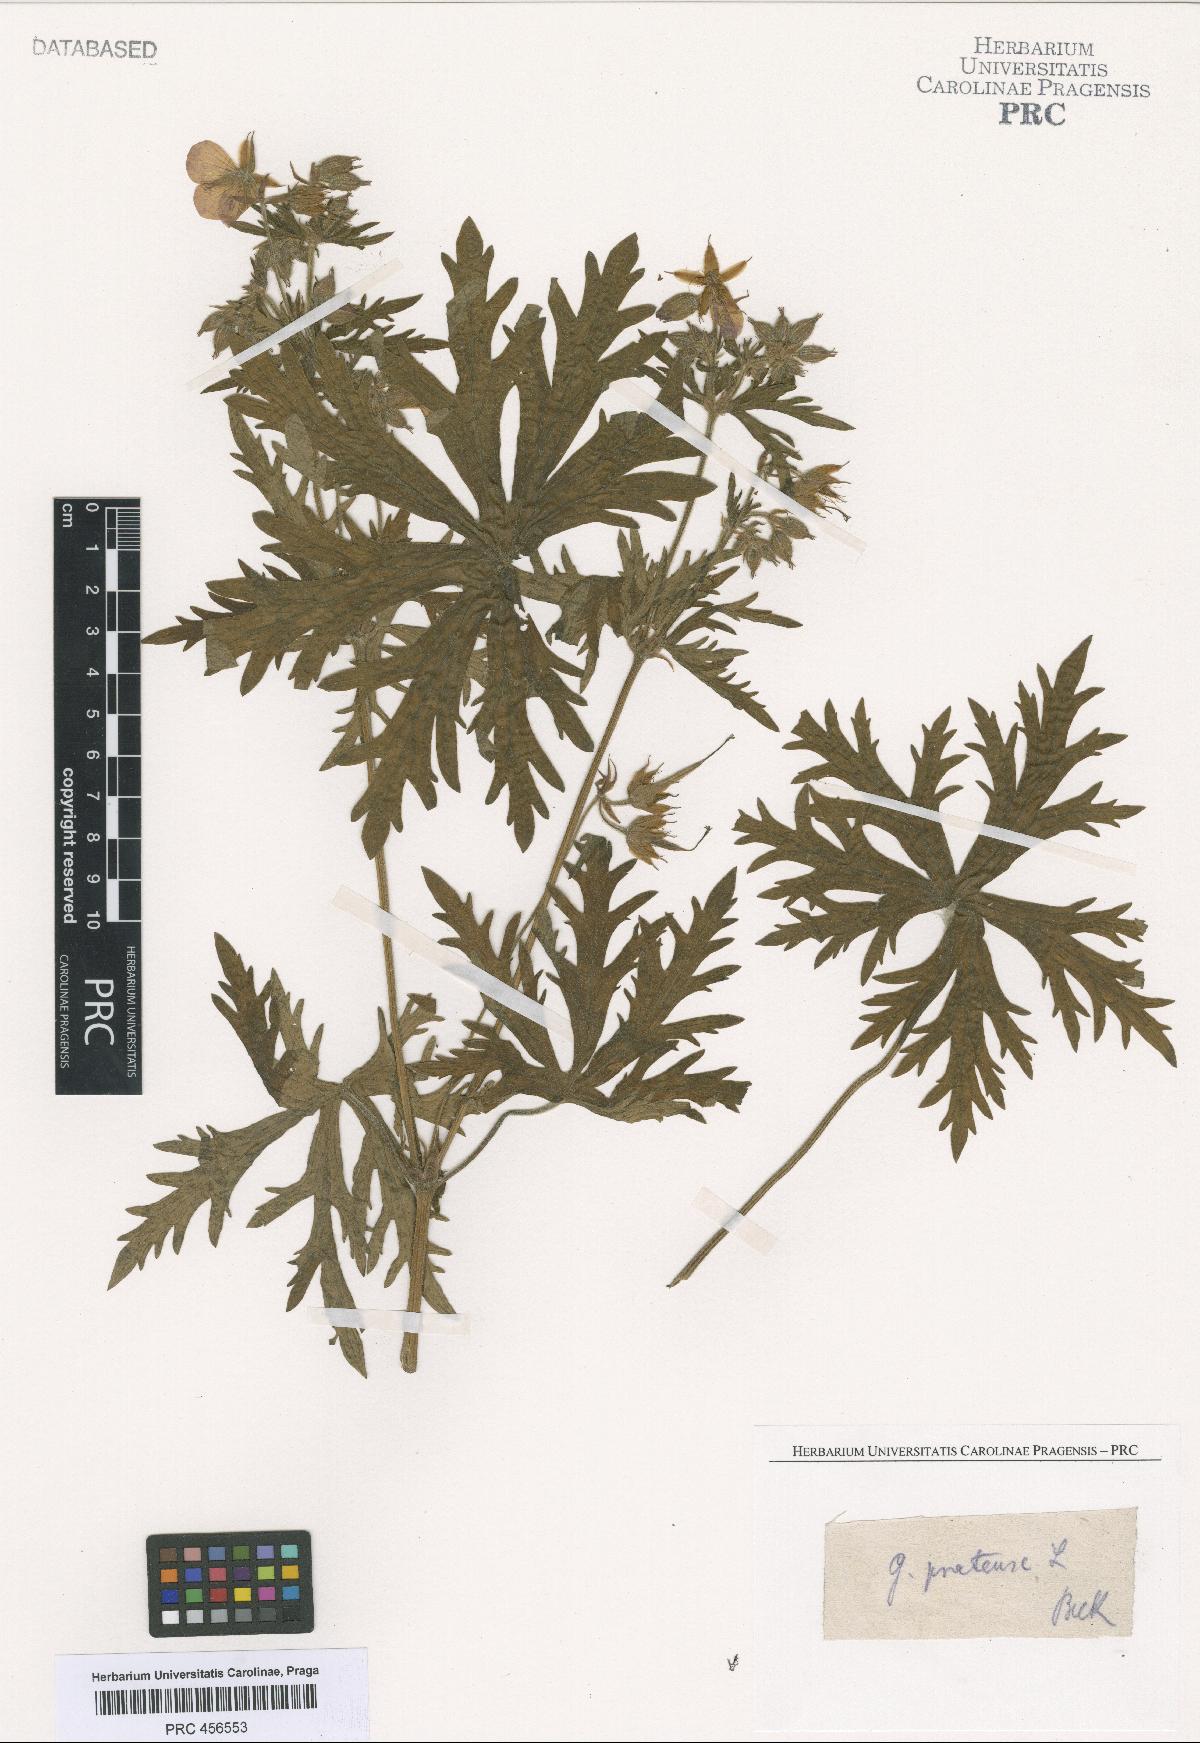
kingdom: Plantae
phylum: Tracheophyta
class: Magnoliopsida
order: Geraniales
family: Geraniaceae
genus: Geranium
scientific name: Geranium pratense
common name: Meadow crane's-bill
